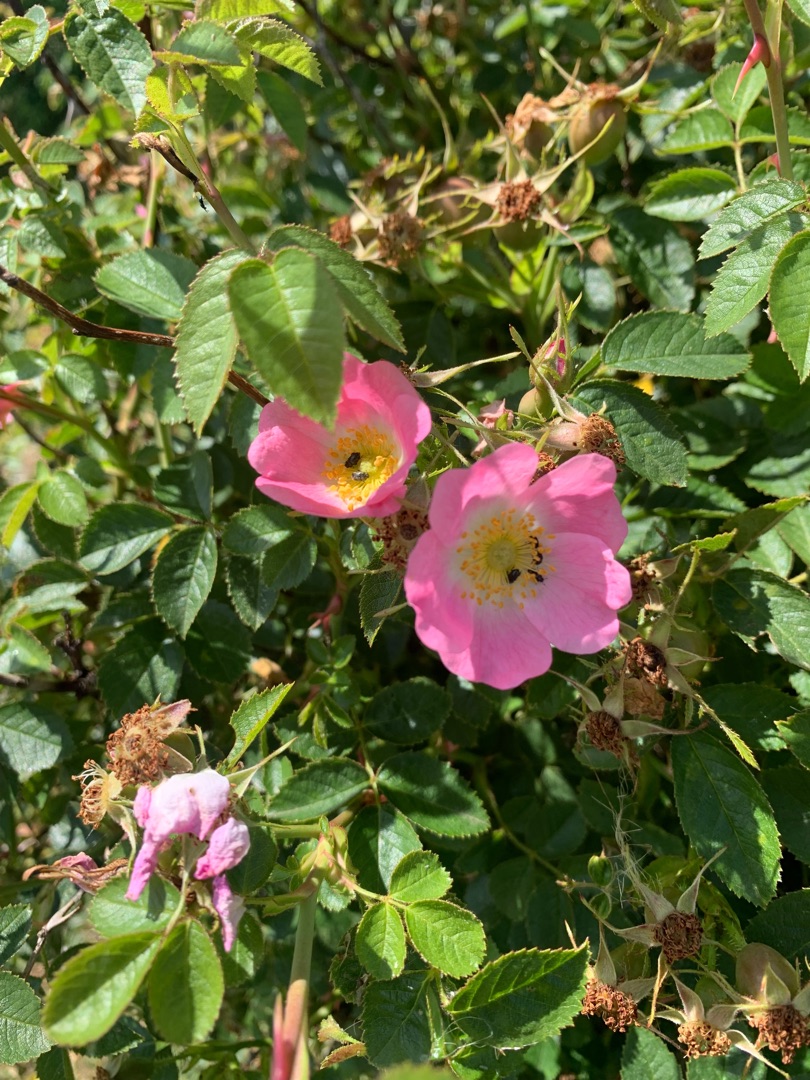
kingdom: Plantae
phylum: Tracheophyta
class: Magnoliopsida
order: Rosales
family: Rosaceae
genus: Rosa
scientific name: Rosa rubiginosa
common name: Æble-rose
